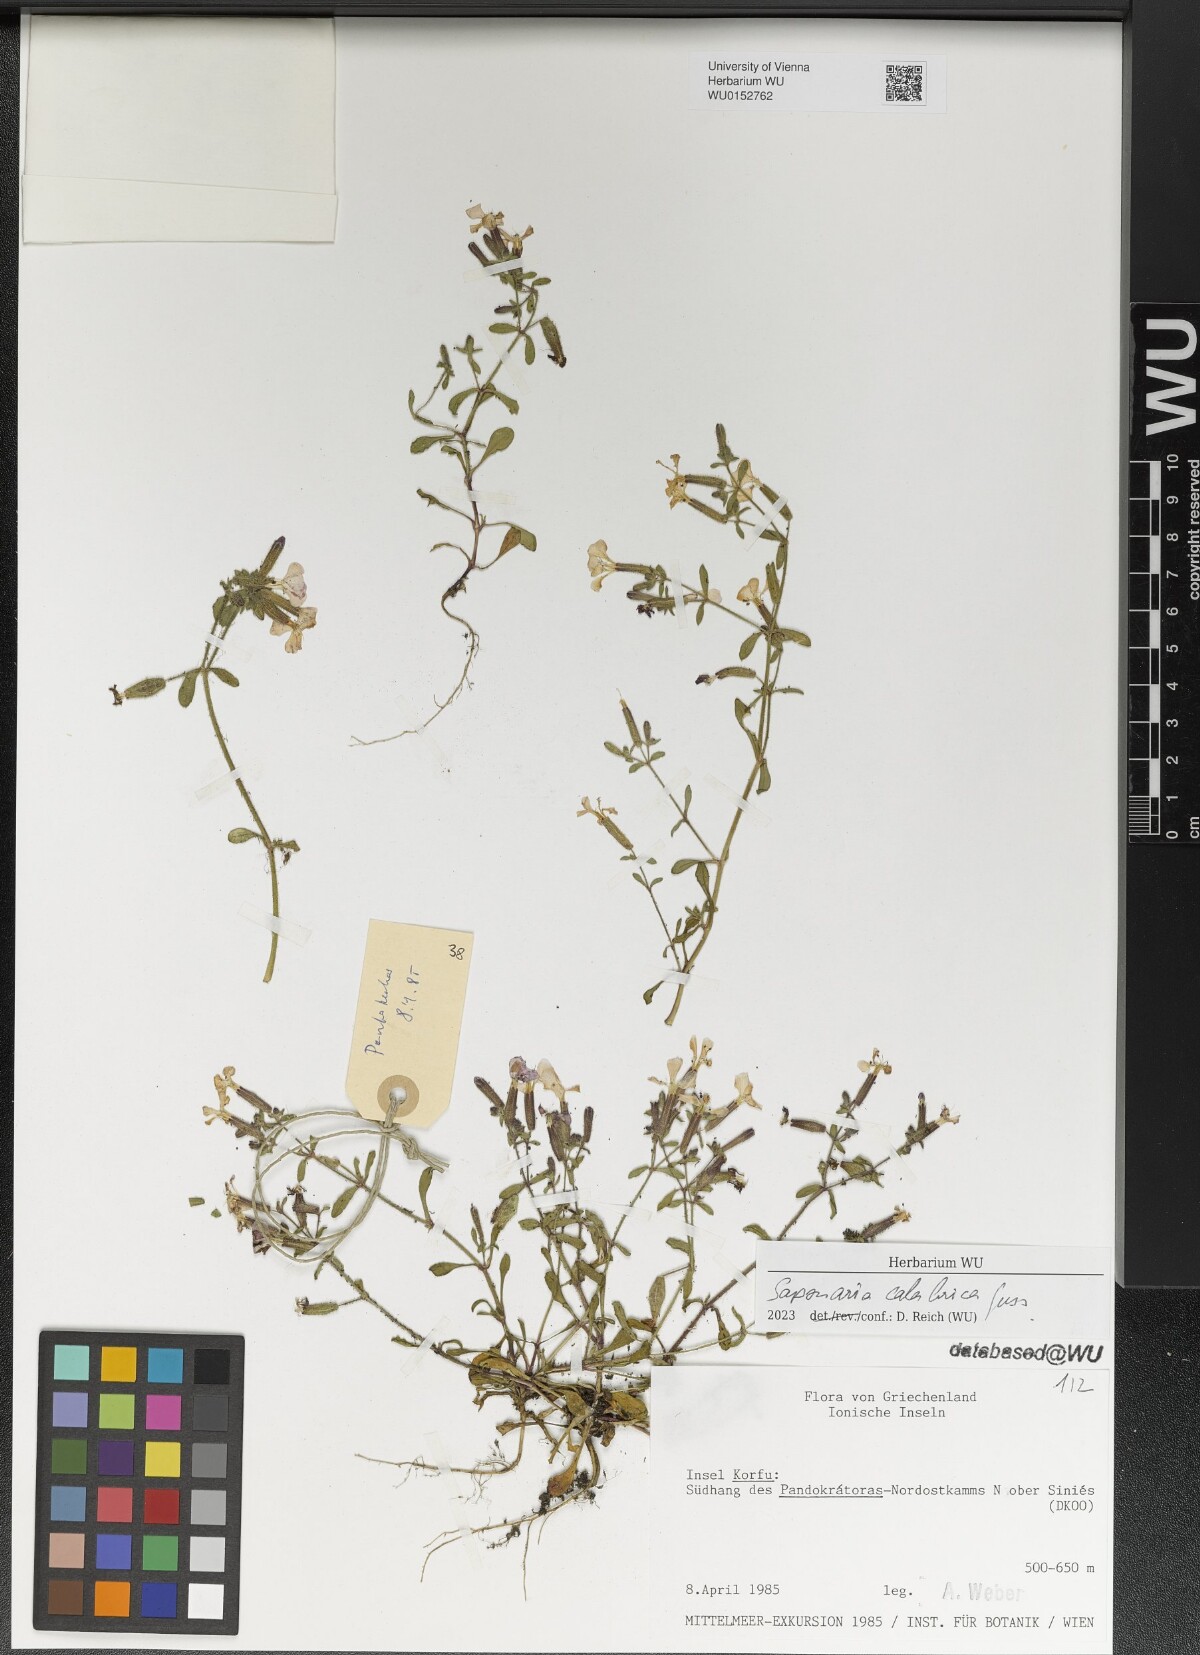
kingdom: Plantae
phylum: Tracheophyta
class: Magnoliopsida
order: Caryophyllales
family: Caryophyllaceae
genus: Saponaria
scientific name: Saponaria calabrica
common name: Adriatic soapwort
